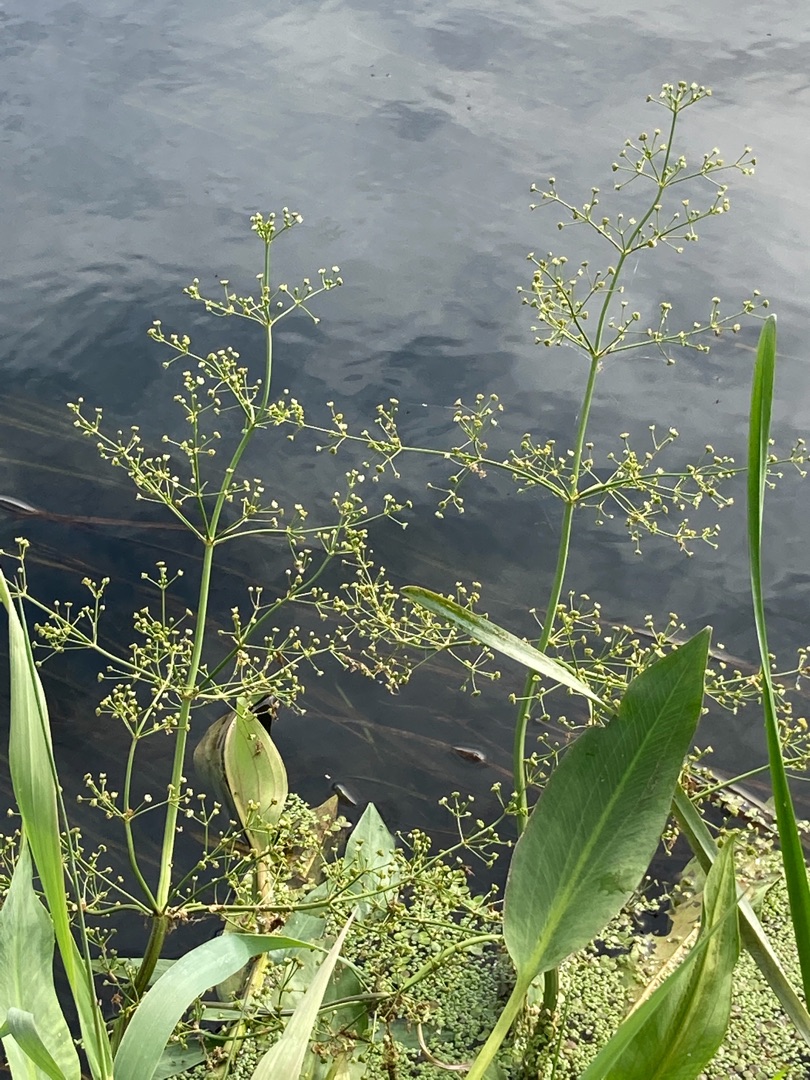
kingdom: Plantae
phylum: Tracheophyta
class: Liliopsida
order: Alismatales
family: Alismataceae
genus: Alisma
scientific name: Alisma plantago-aquatica
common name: Vejbred-skeblad
